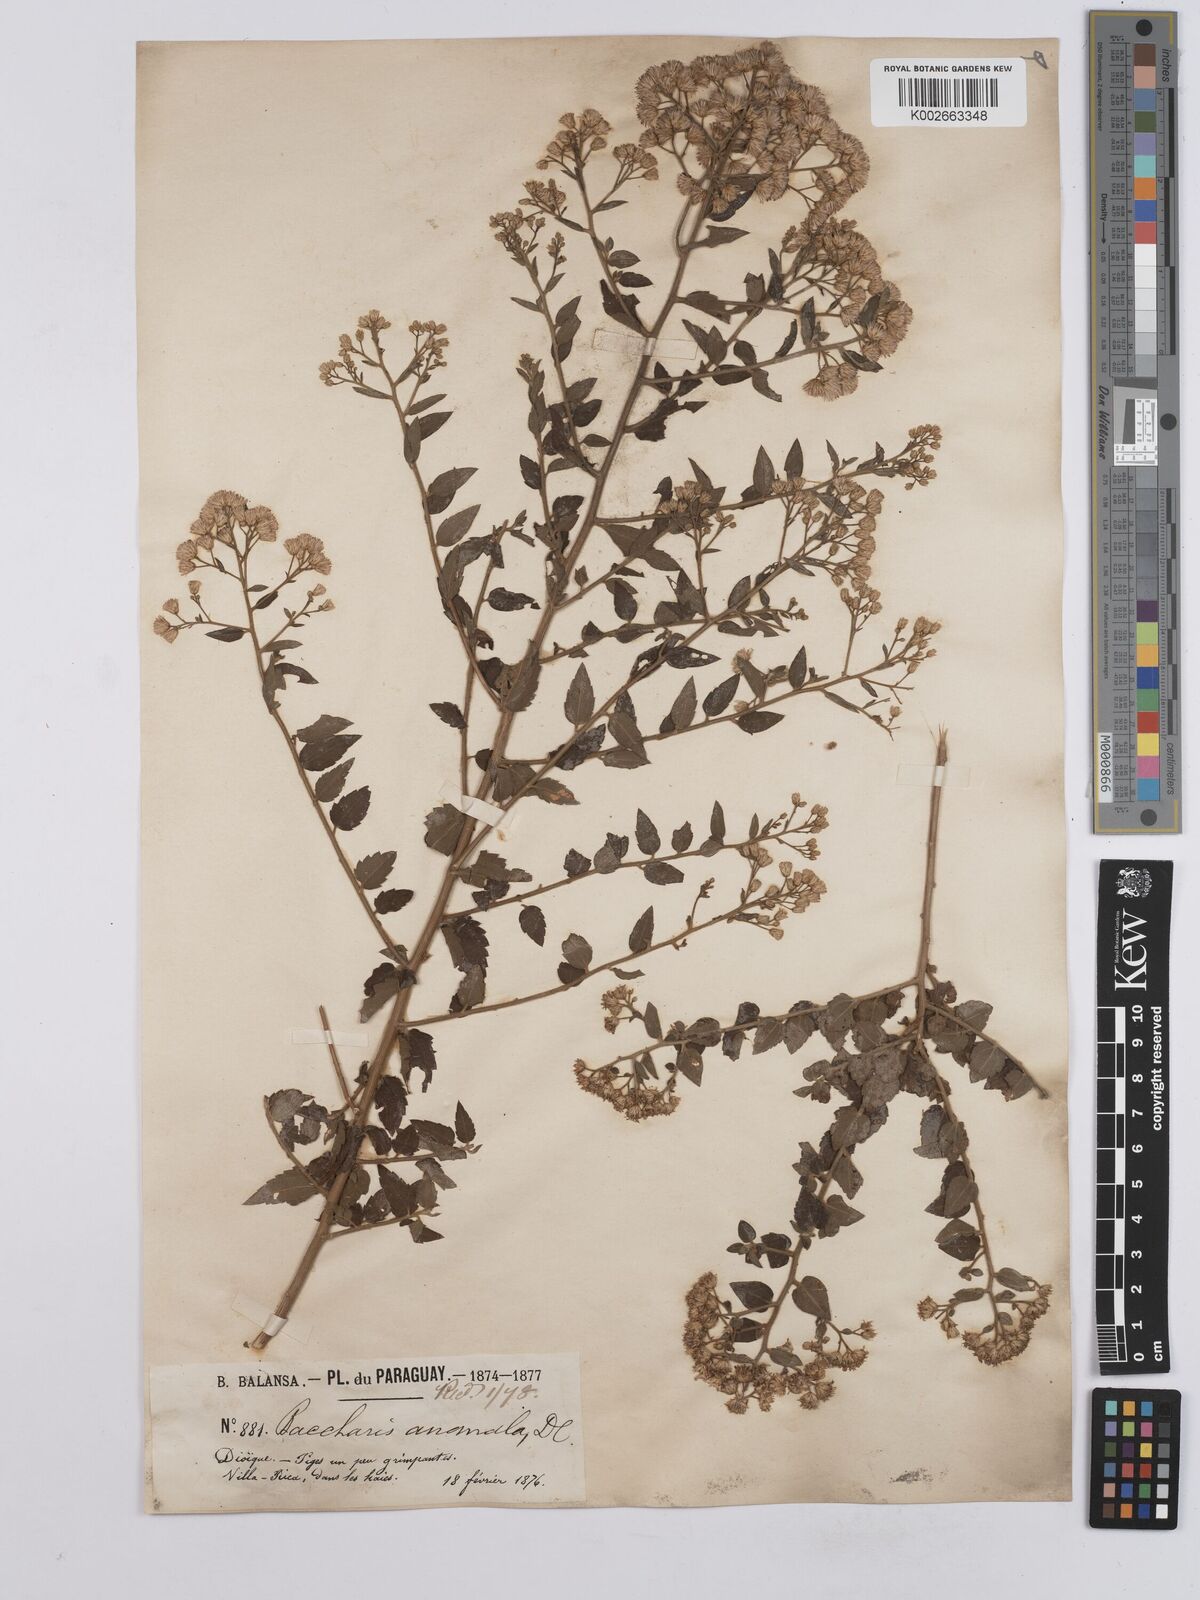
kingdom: Plantae
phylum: Tracheophyta
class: Magnoliopsida
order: Asterales
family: Asteraceae
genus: Baccharis
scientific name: Baccharis anomala
